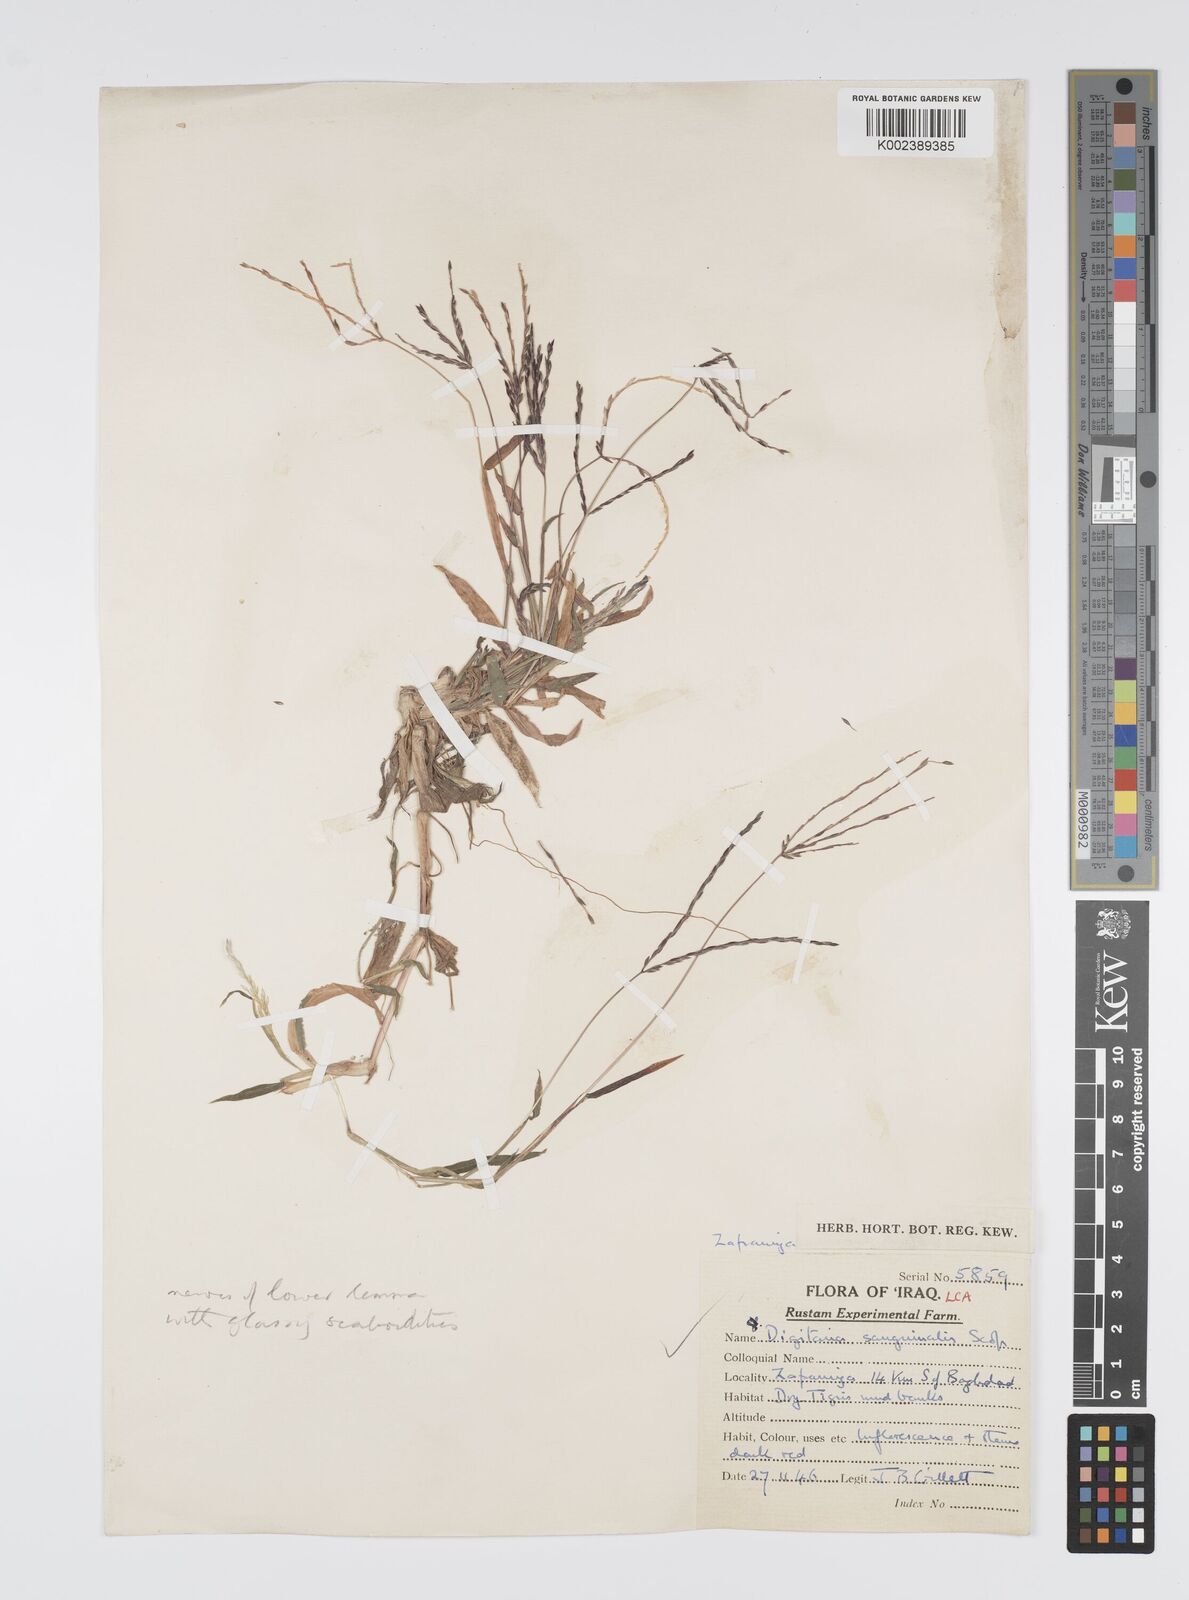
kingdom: Plantae
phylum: Tracheophyta
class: Liliopsida
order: Poales
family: Poaceae
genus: Digitaria
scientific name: Digitaria sanguinalis
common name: Hairy crabgrass
